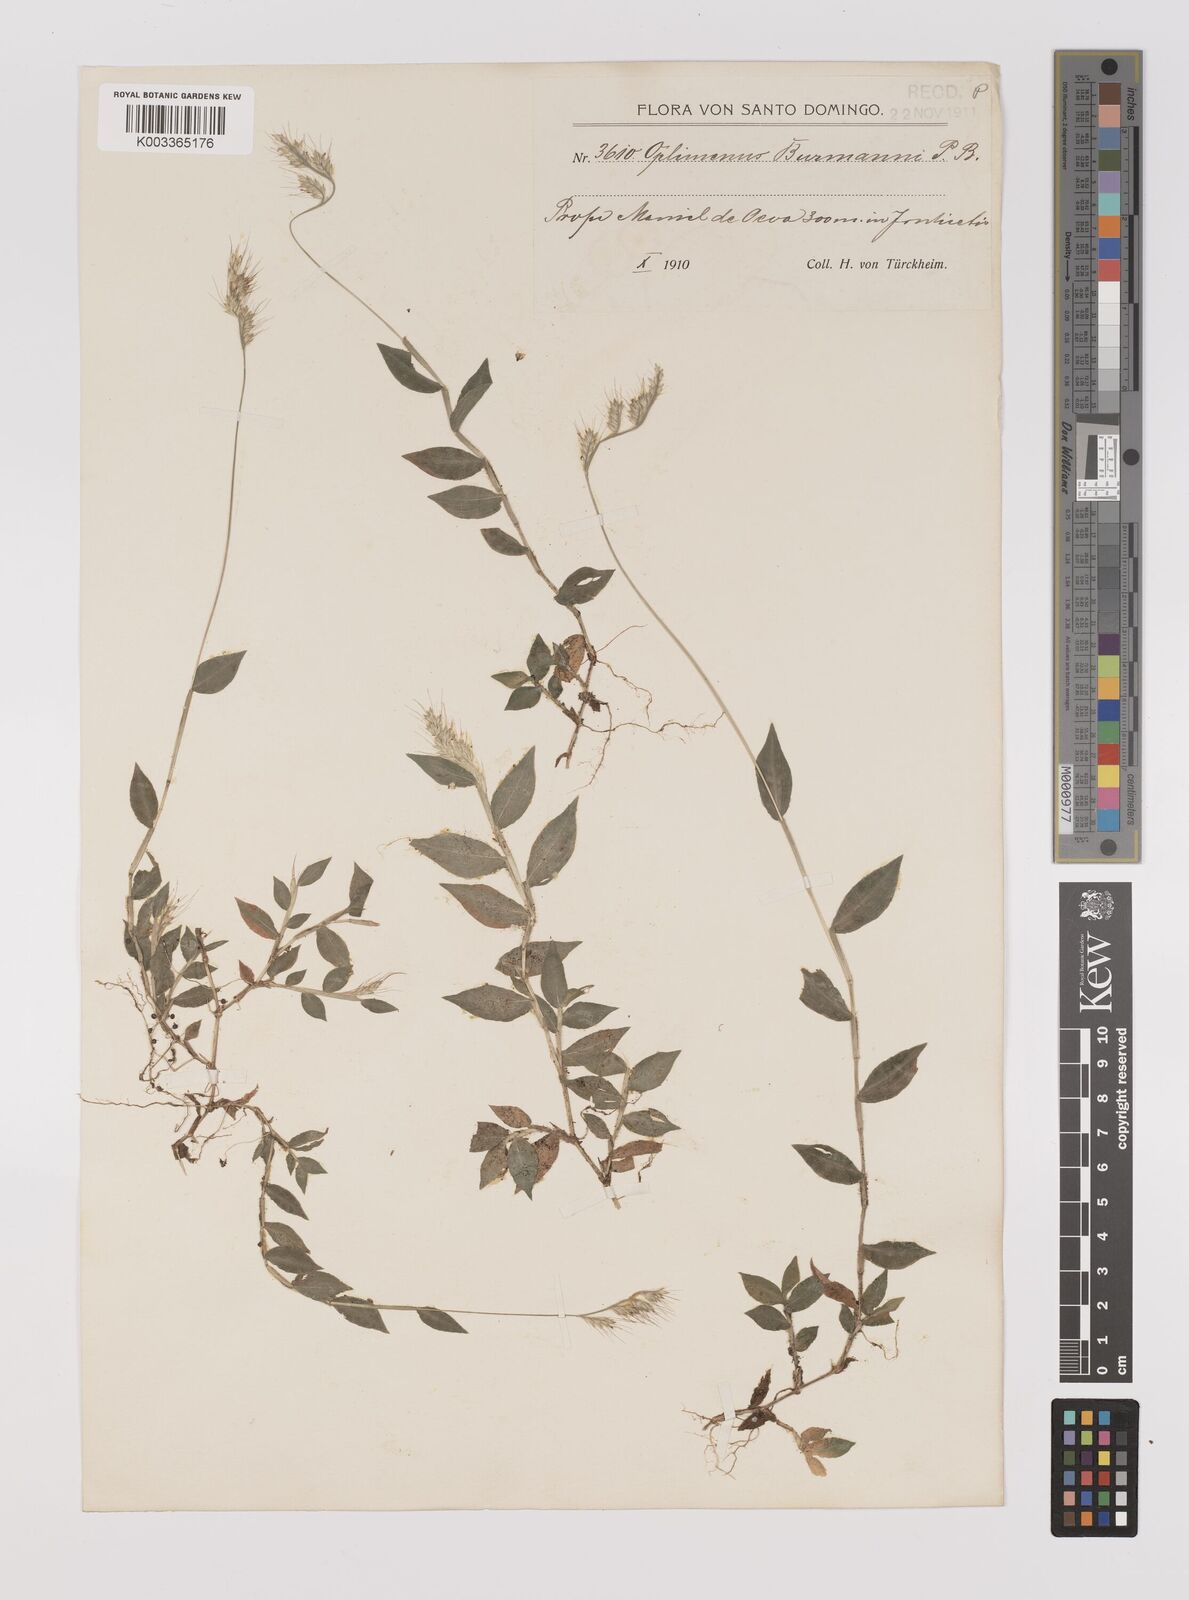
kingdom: Plantae
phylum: Tracheophyta
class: Liliopsida
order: Poales
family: Poaceae
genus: Oplismenus
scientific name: Oplismenus burmanni
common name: Burmann's basketgrass
